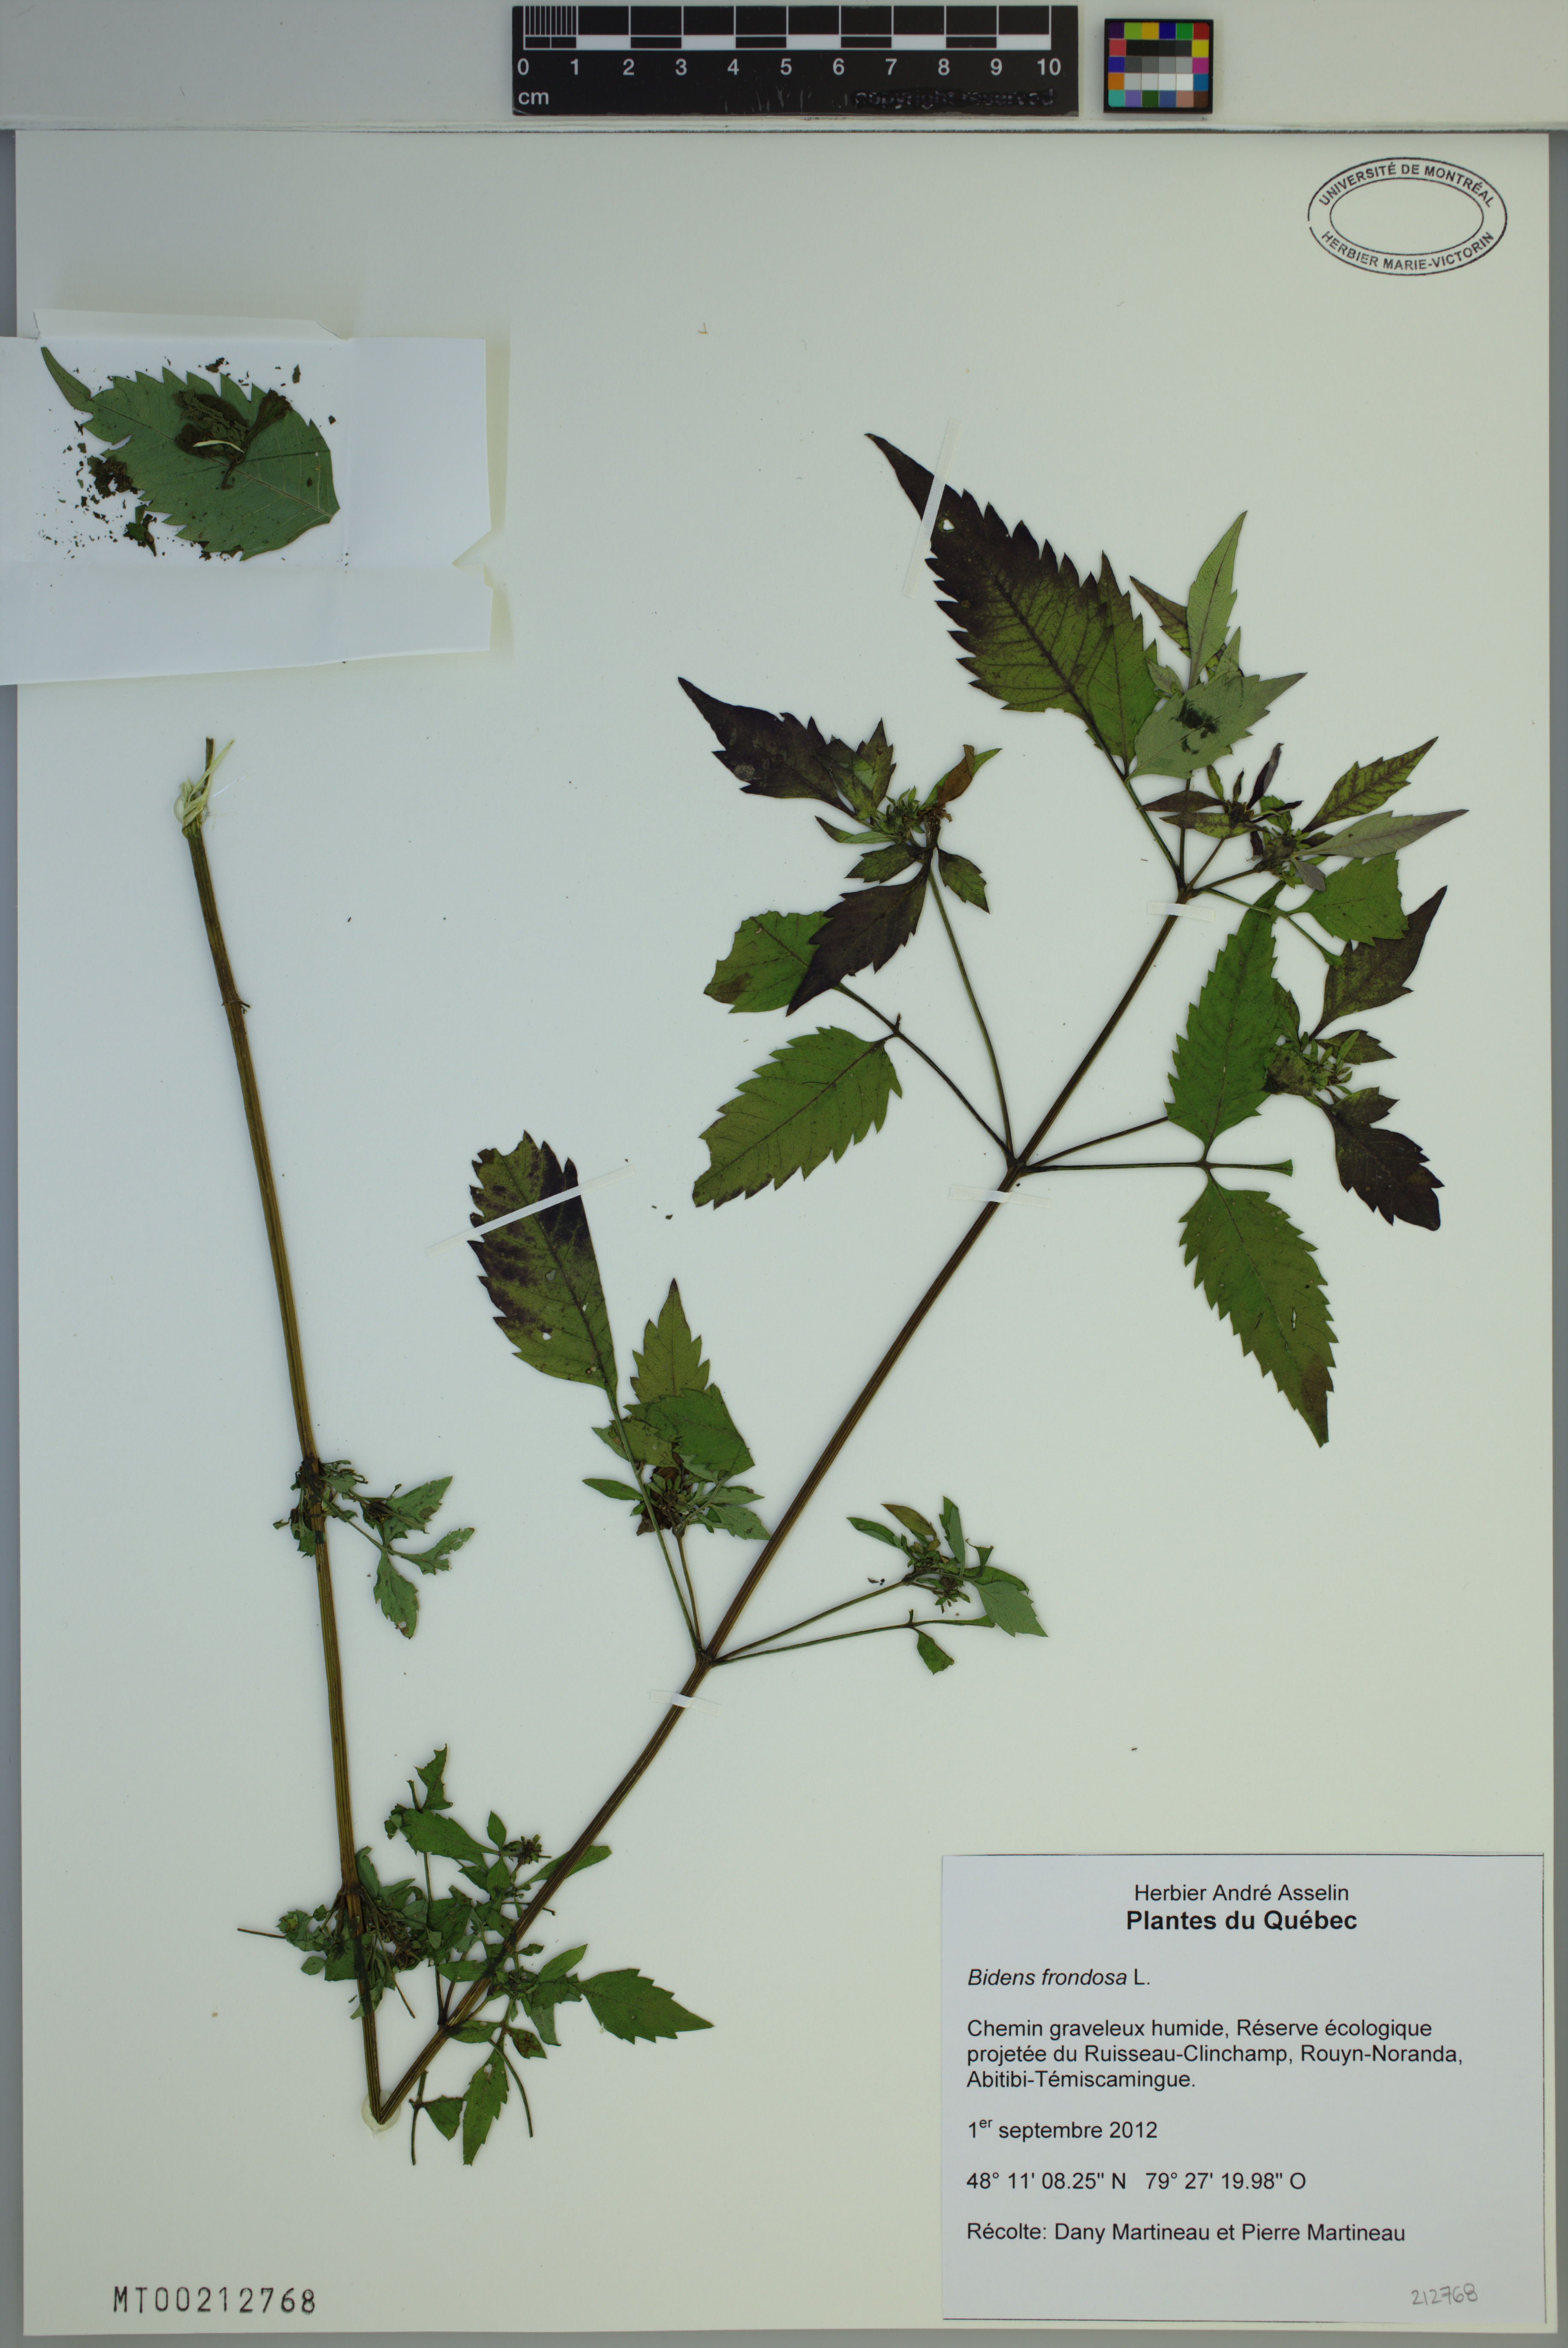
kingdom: Plantae
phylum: Tracheophyta
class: Magnoliopsida
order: Asterales
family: Asteraceae
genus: Bidens
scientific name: Bidens frondosa
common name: Beggarticks
